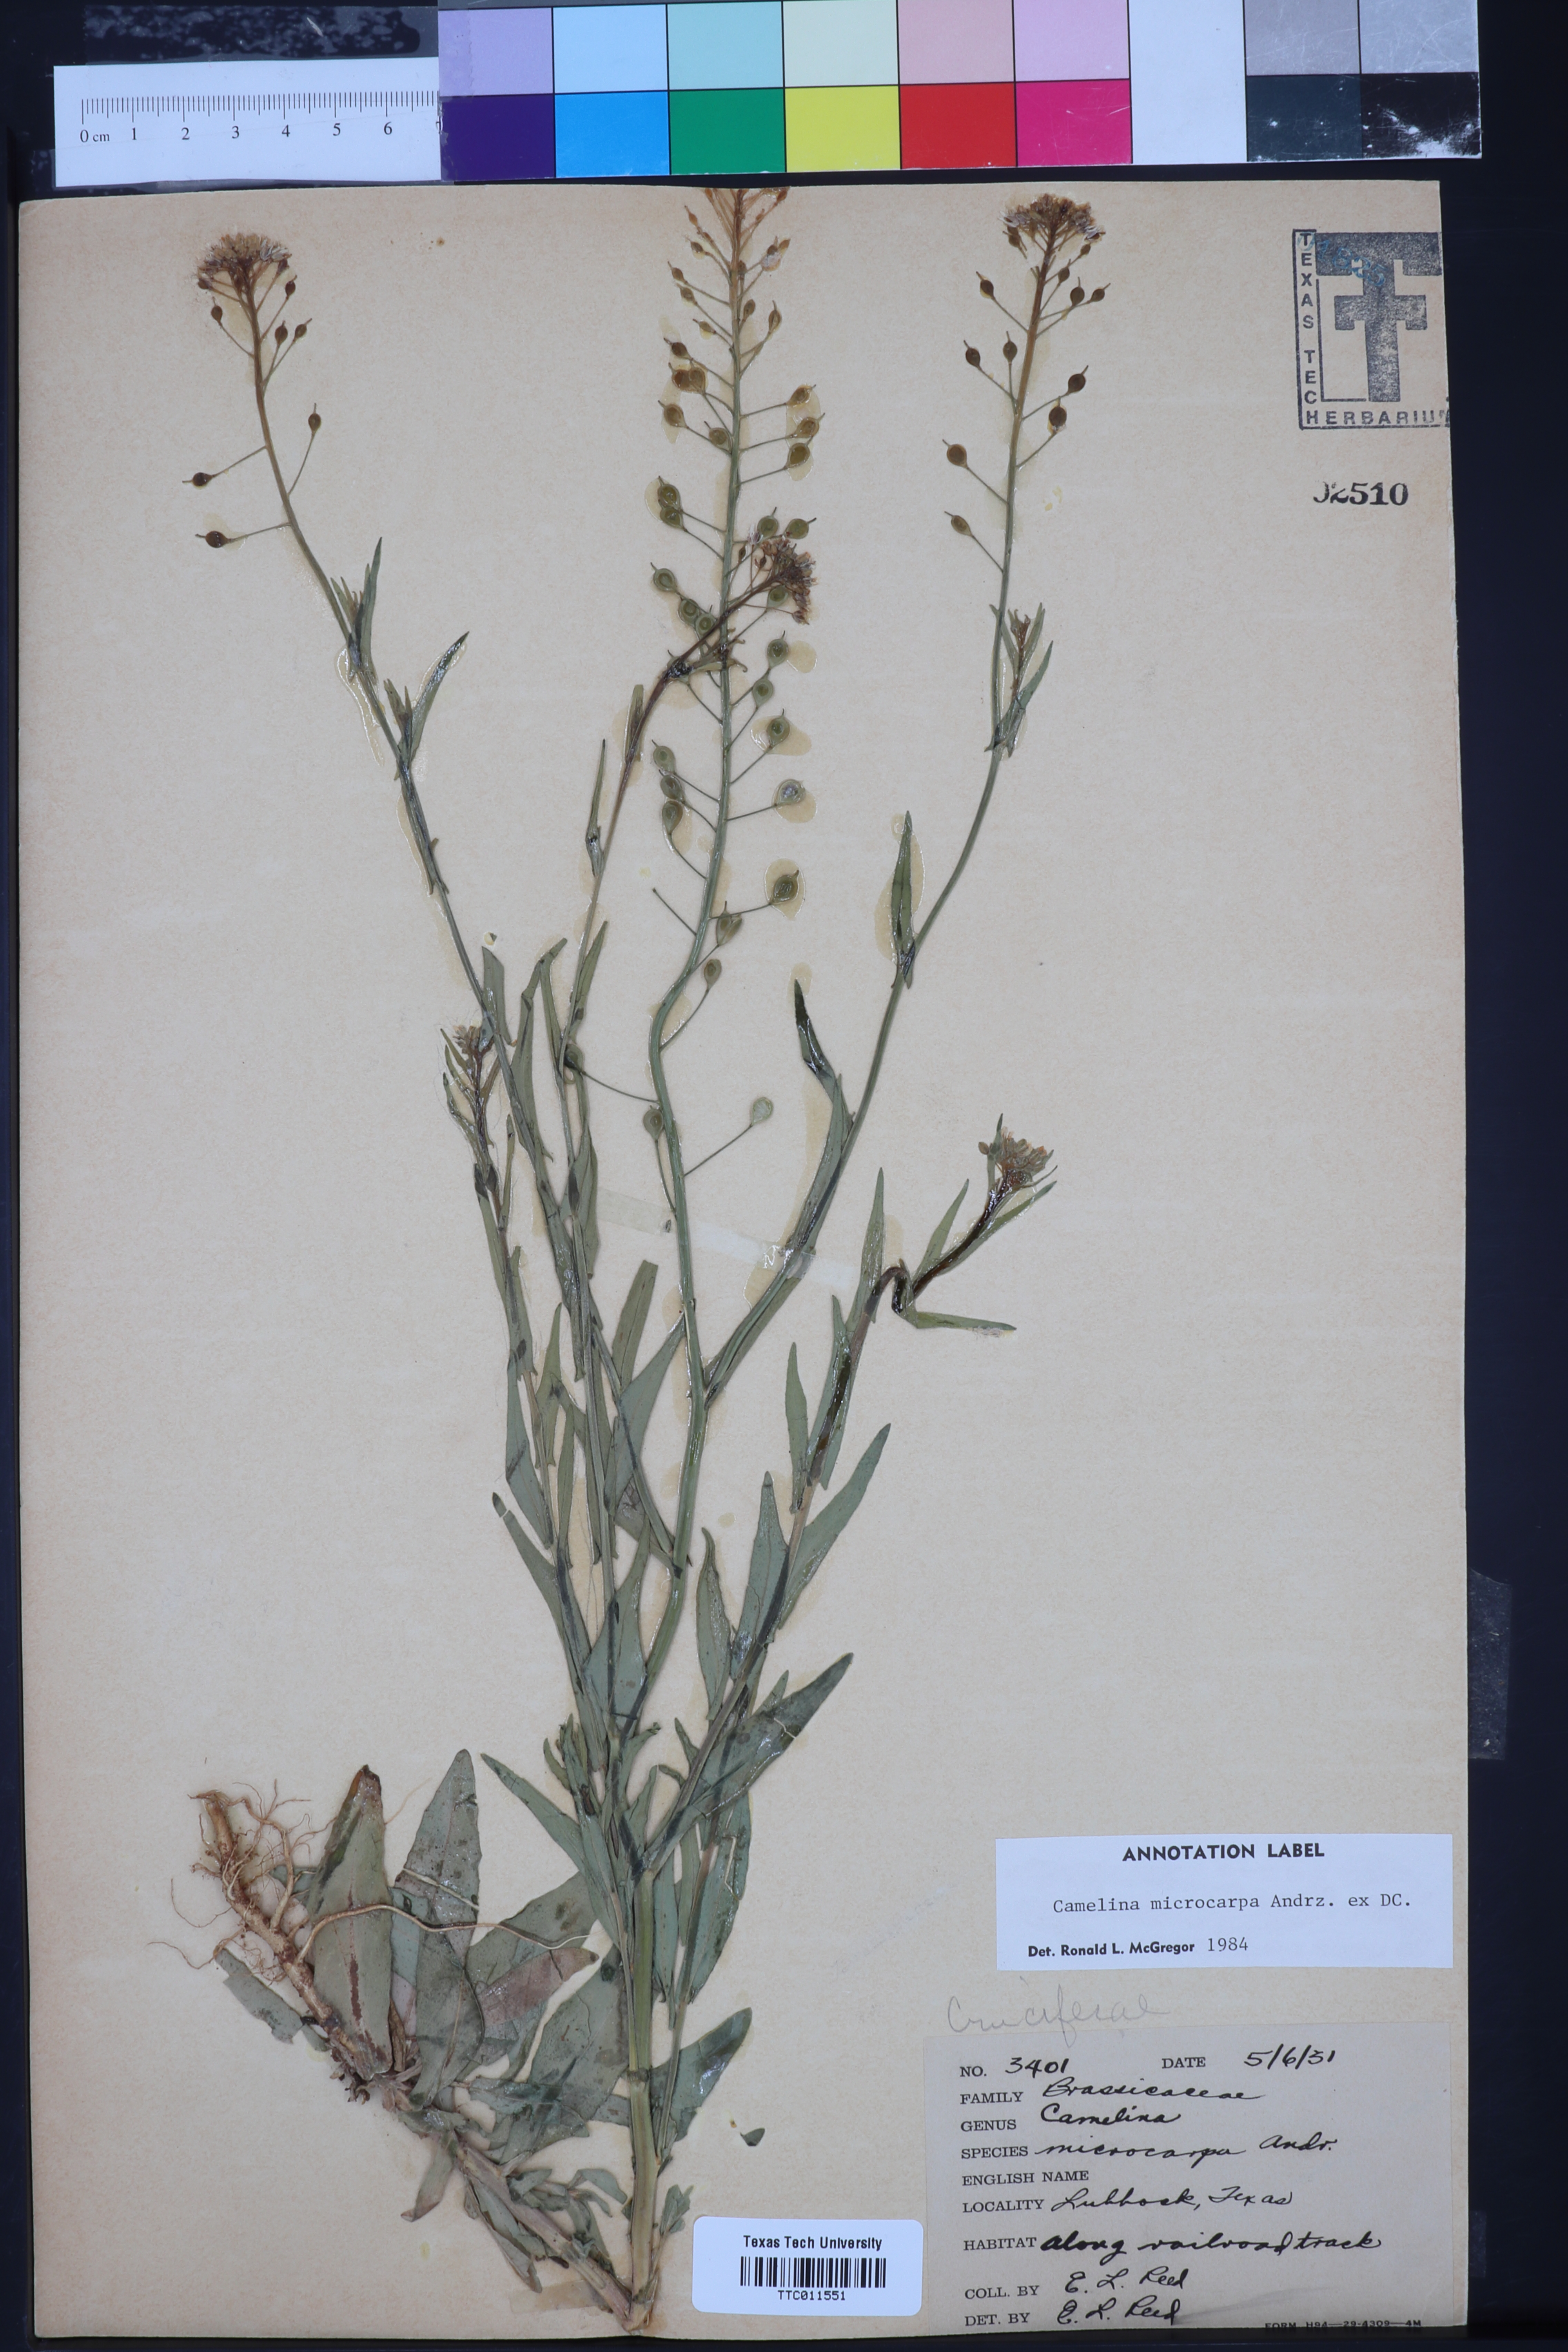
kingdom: Plantae
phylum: Tracheophyta
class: Magnoliopsida
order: Brassicales
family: Brassicaceae
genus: Camelina
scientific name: Camelina microcarpa
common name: Lesser gold-of-pleasure
